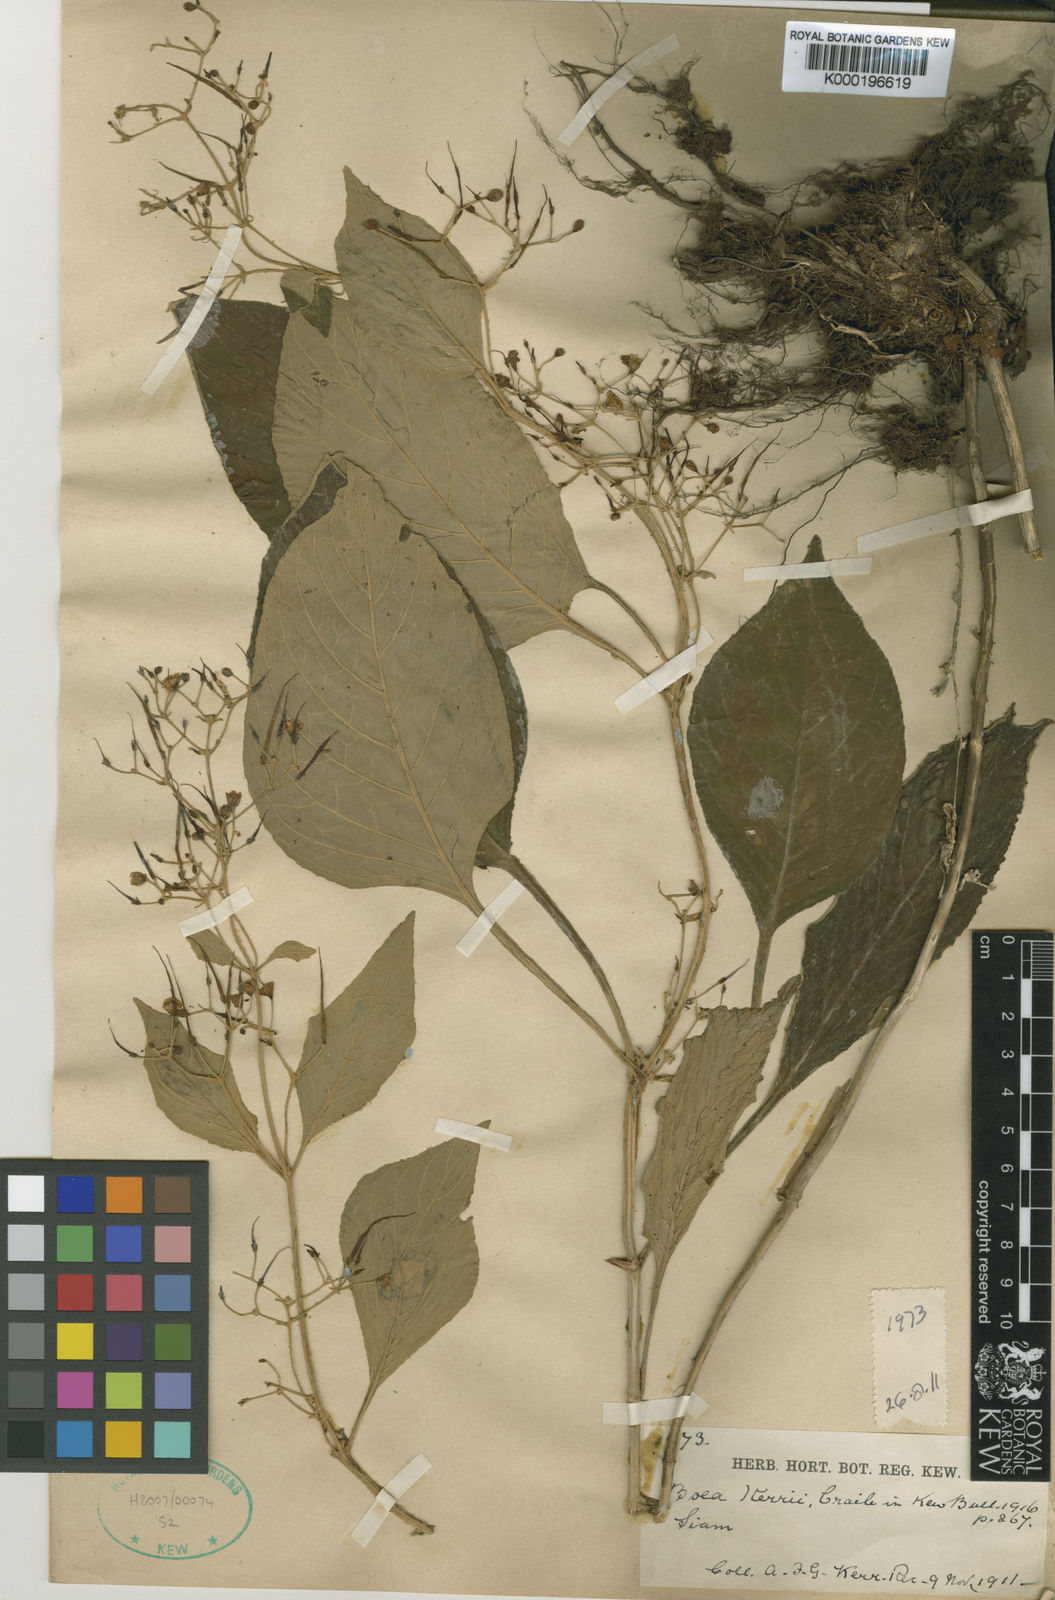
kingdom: Plantae
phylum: Tracheophyta
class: Magnoliopsida
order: Lamiales
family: Gesneriaceae
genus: Paraboea
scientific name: Paraboea swinhoei
